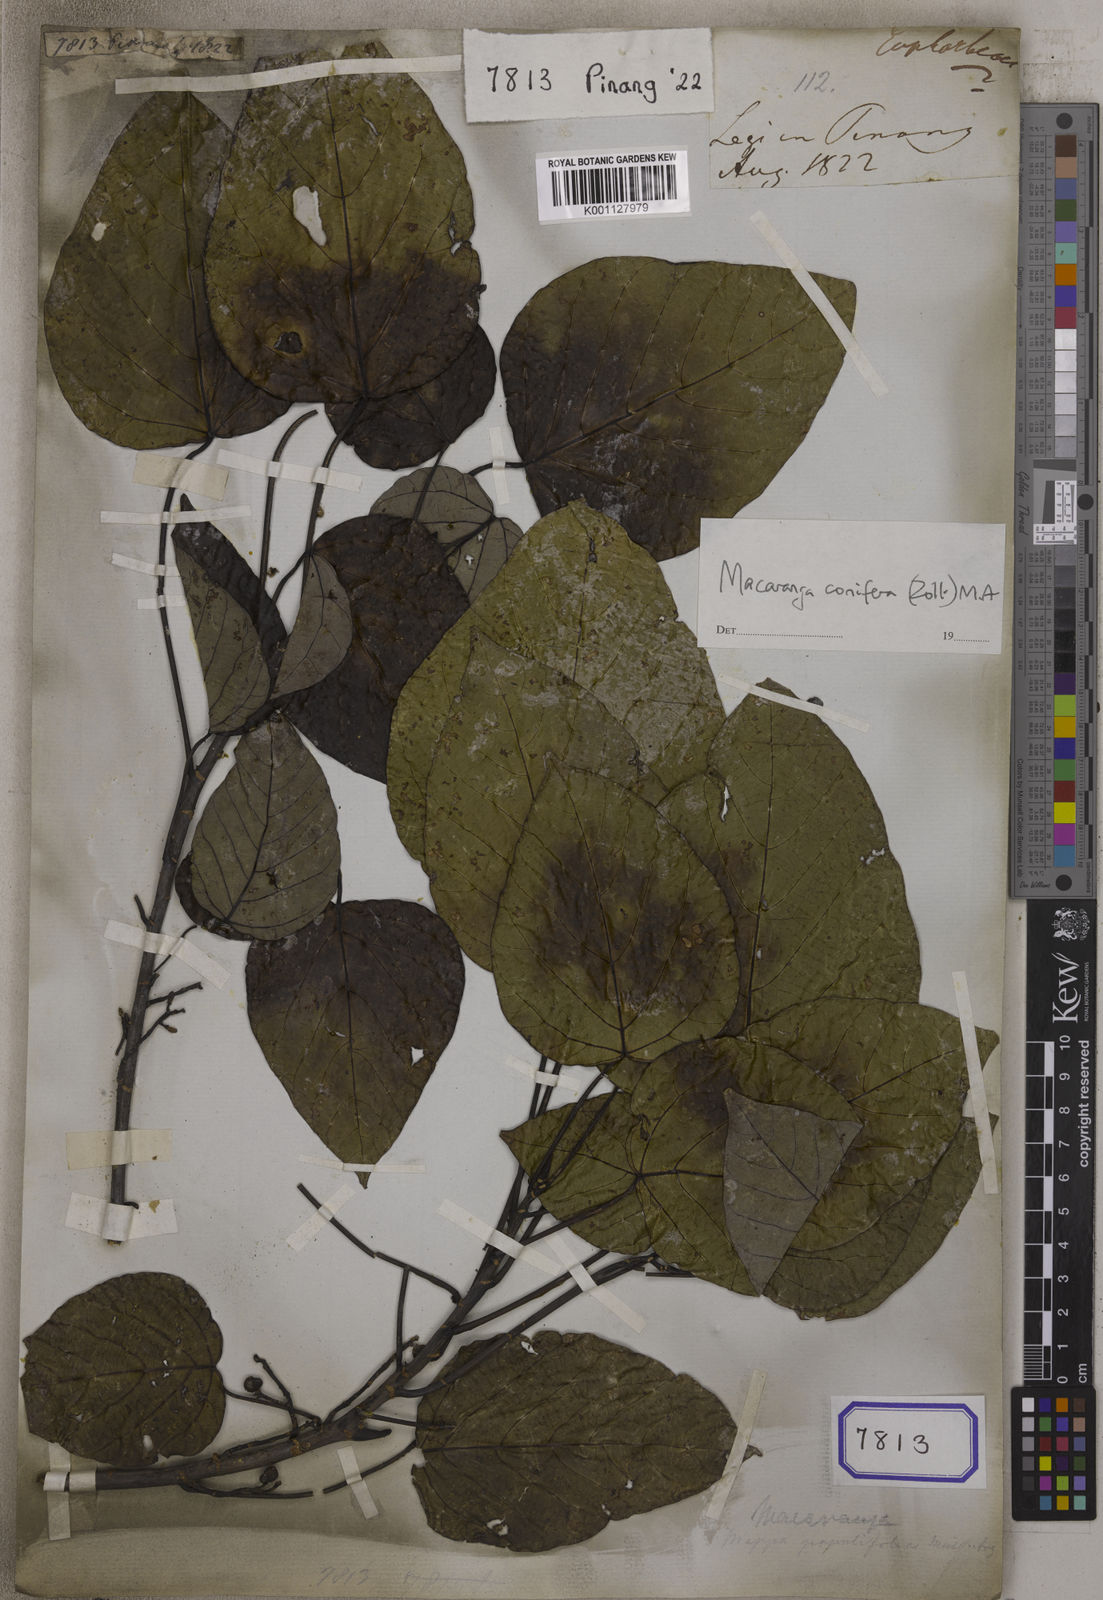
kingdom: Plantae
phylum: Tracheophyta
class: Magnoliopsida
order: Malpighiales
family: Euphorbiaceae
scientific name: Euphorbiaceae
